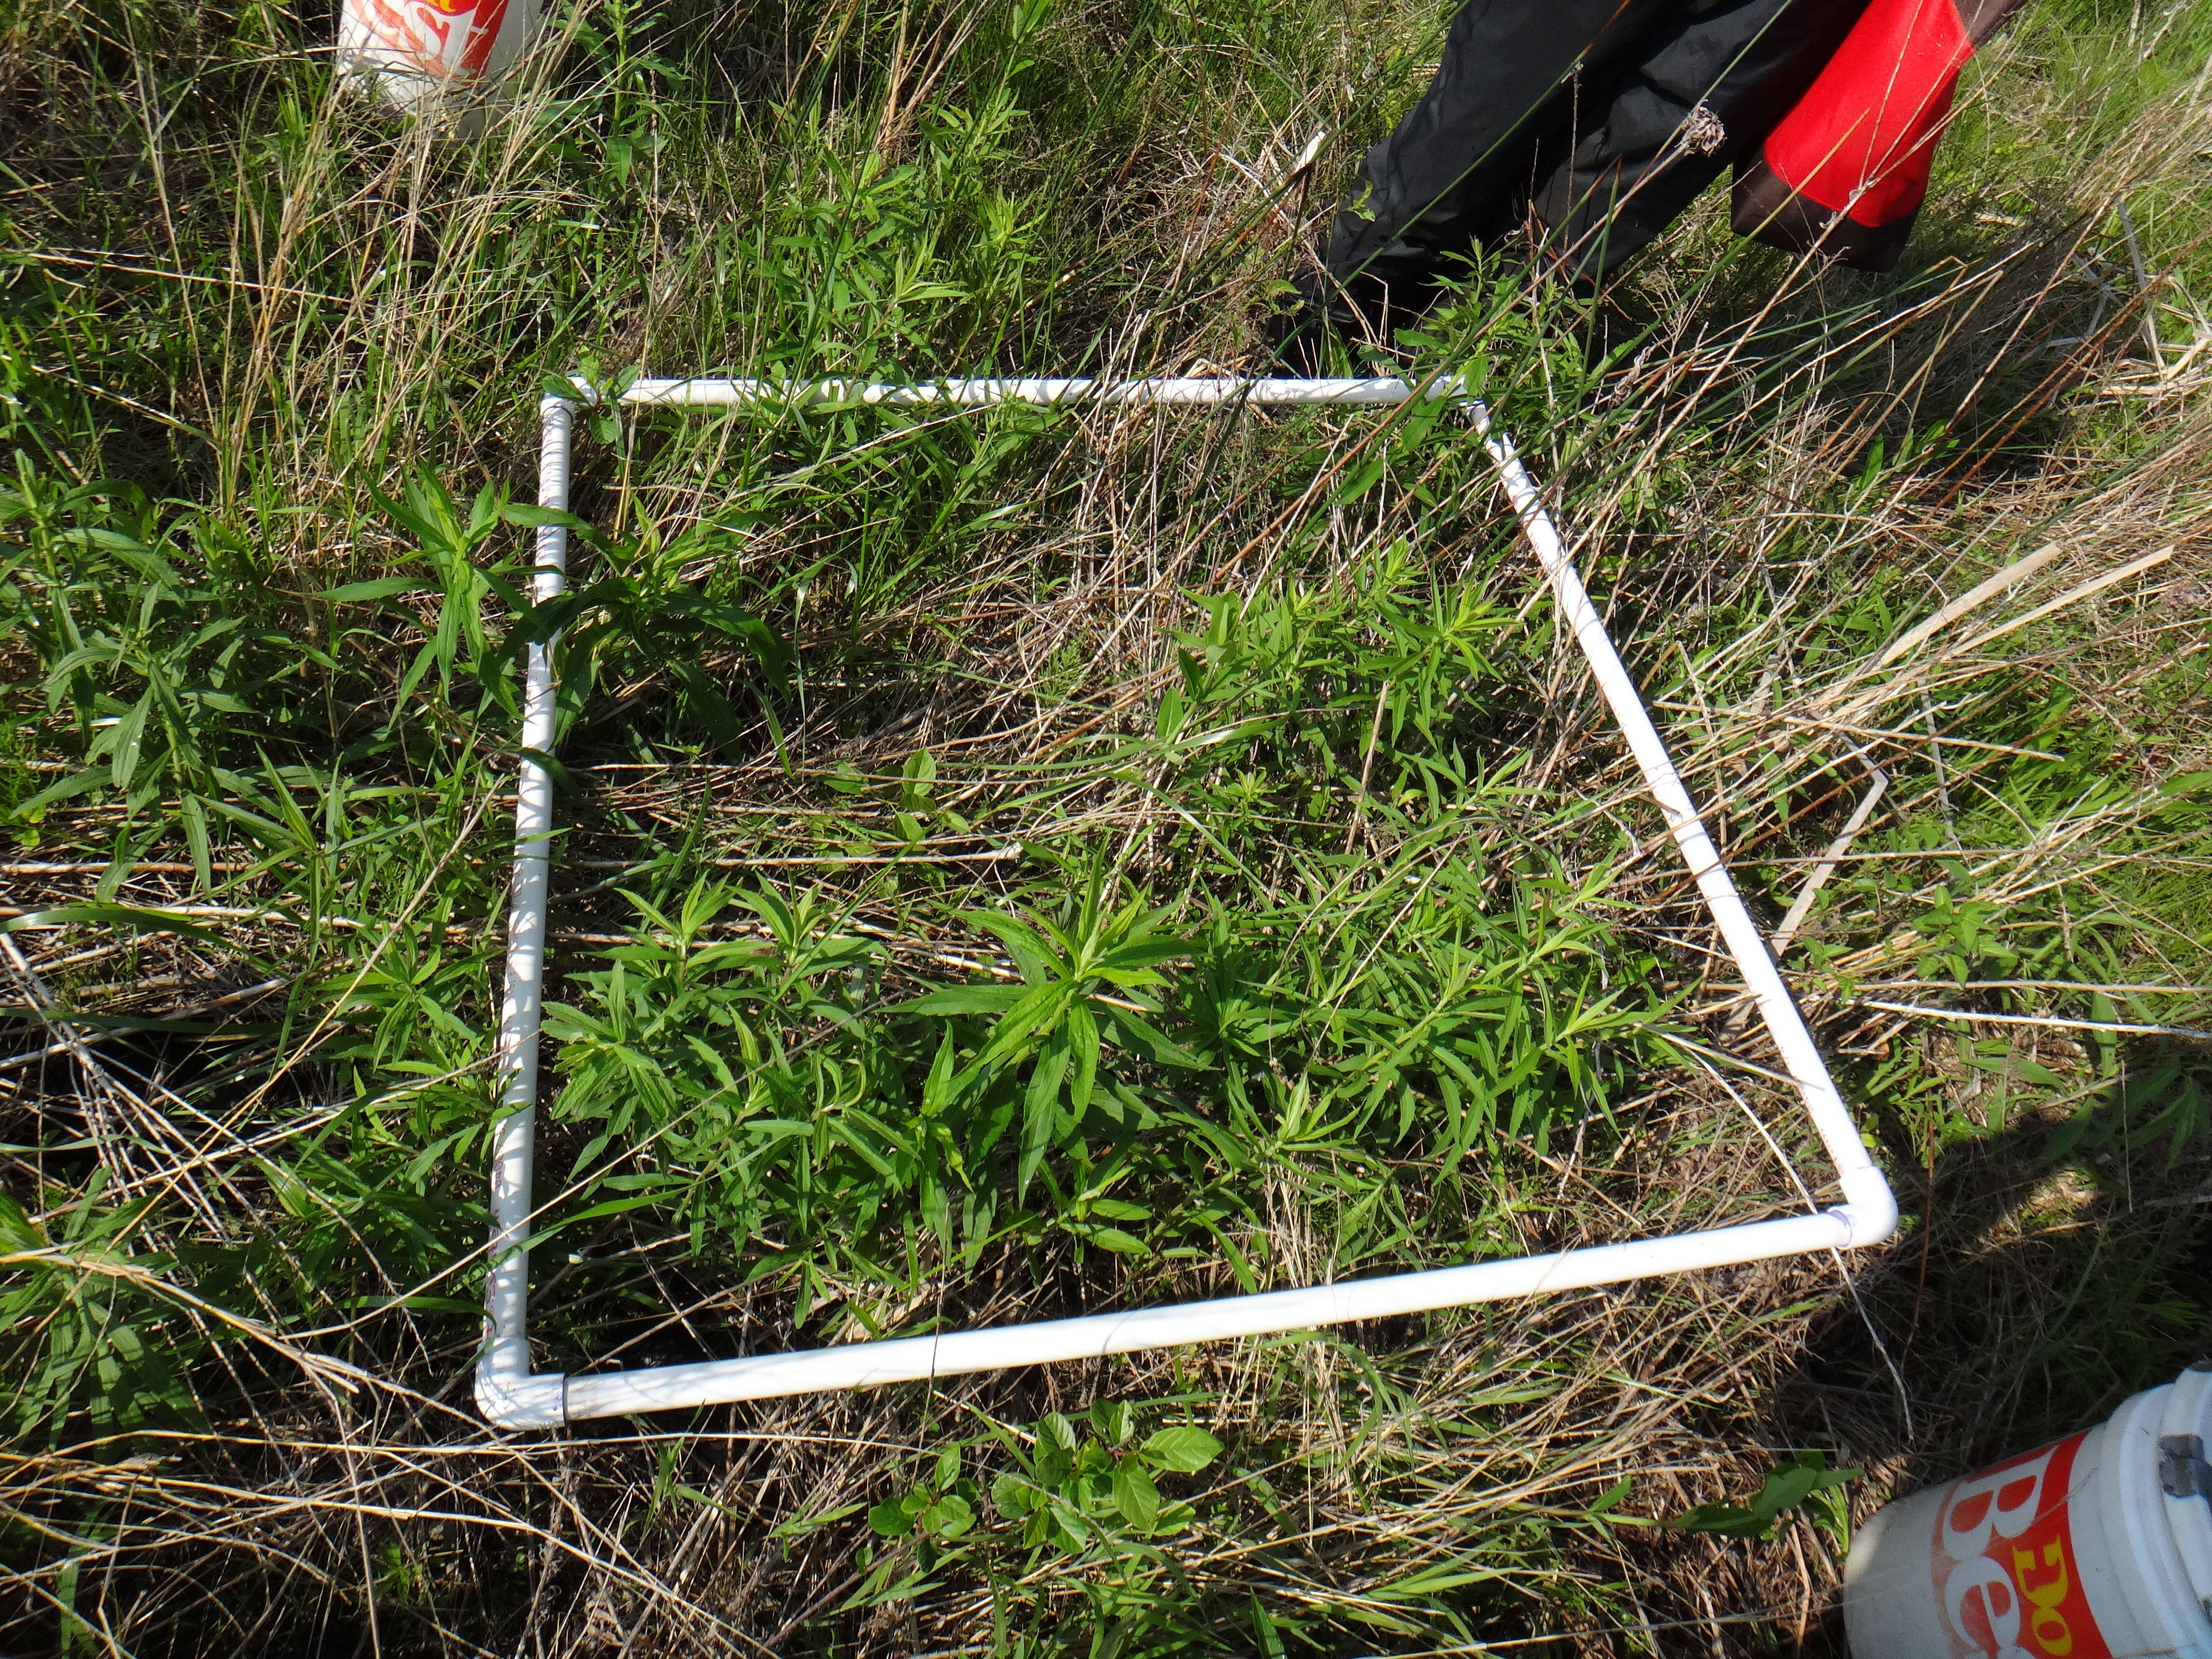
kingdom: Plantae
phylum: Tracheophyta
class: Liliopsida
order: Poales
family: Poaceae
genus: Poa
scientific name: Poa pratensis
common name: Kentucky bluegrass
